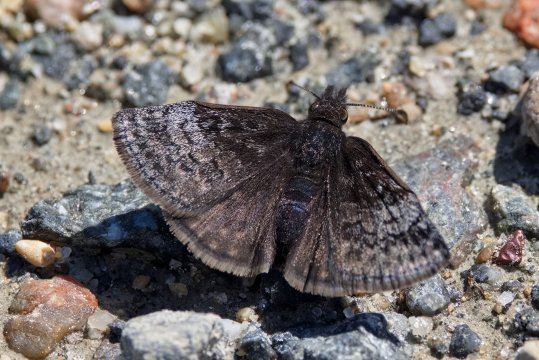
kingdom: Animalia
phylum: Arthropoda
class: Insecta
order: Lepidoptera
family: Hesperiidae
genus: Erynnis
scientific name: Erynnis icelus
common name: Dreamy Duskywing
